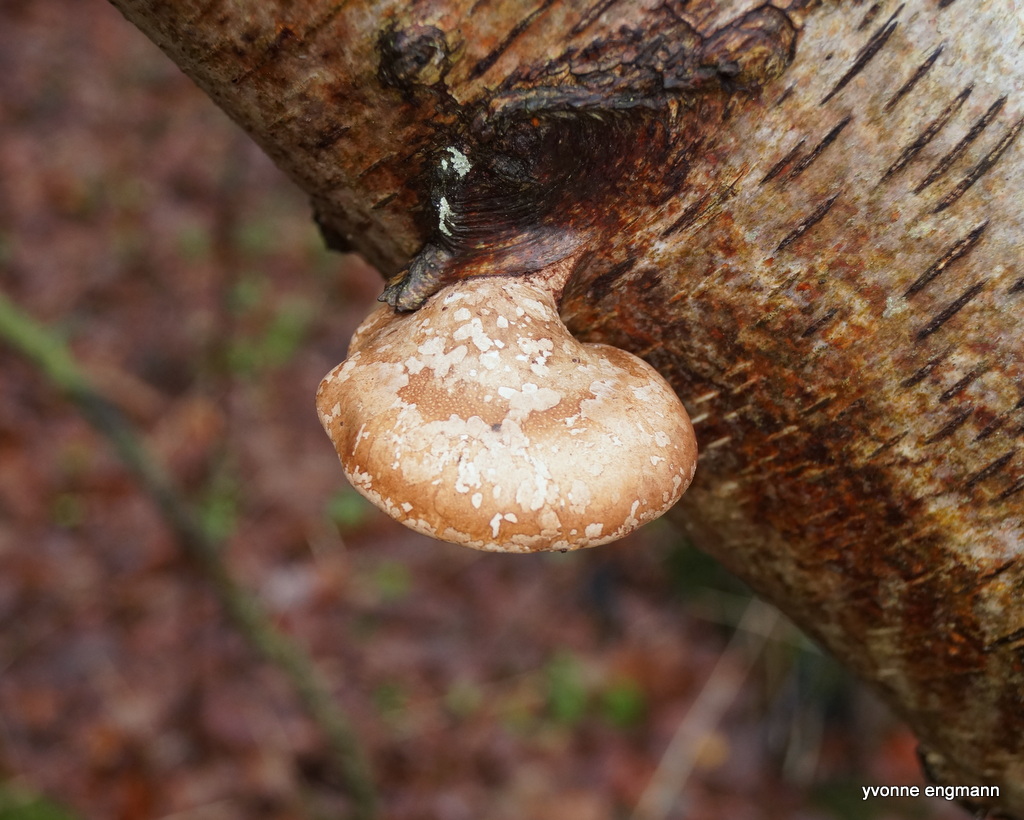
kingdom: Fungi
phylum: Basidiomycota
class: Agaricomycetes
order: Polyporales
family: Fomitopsidaceae
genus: Fomitopsis
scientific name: Fomitopsis betulina
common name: birkeporesvamp
